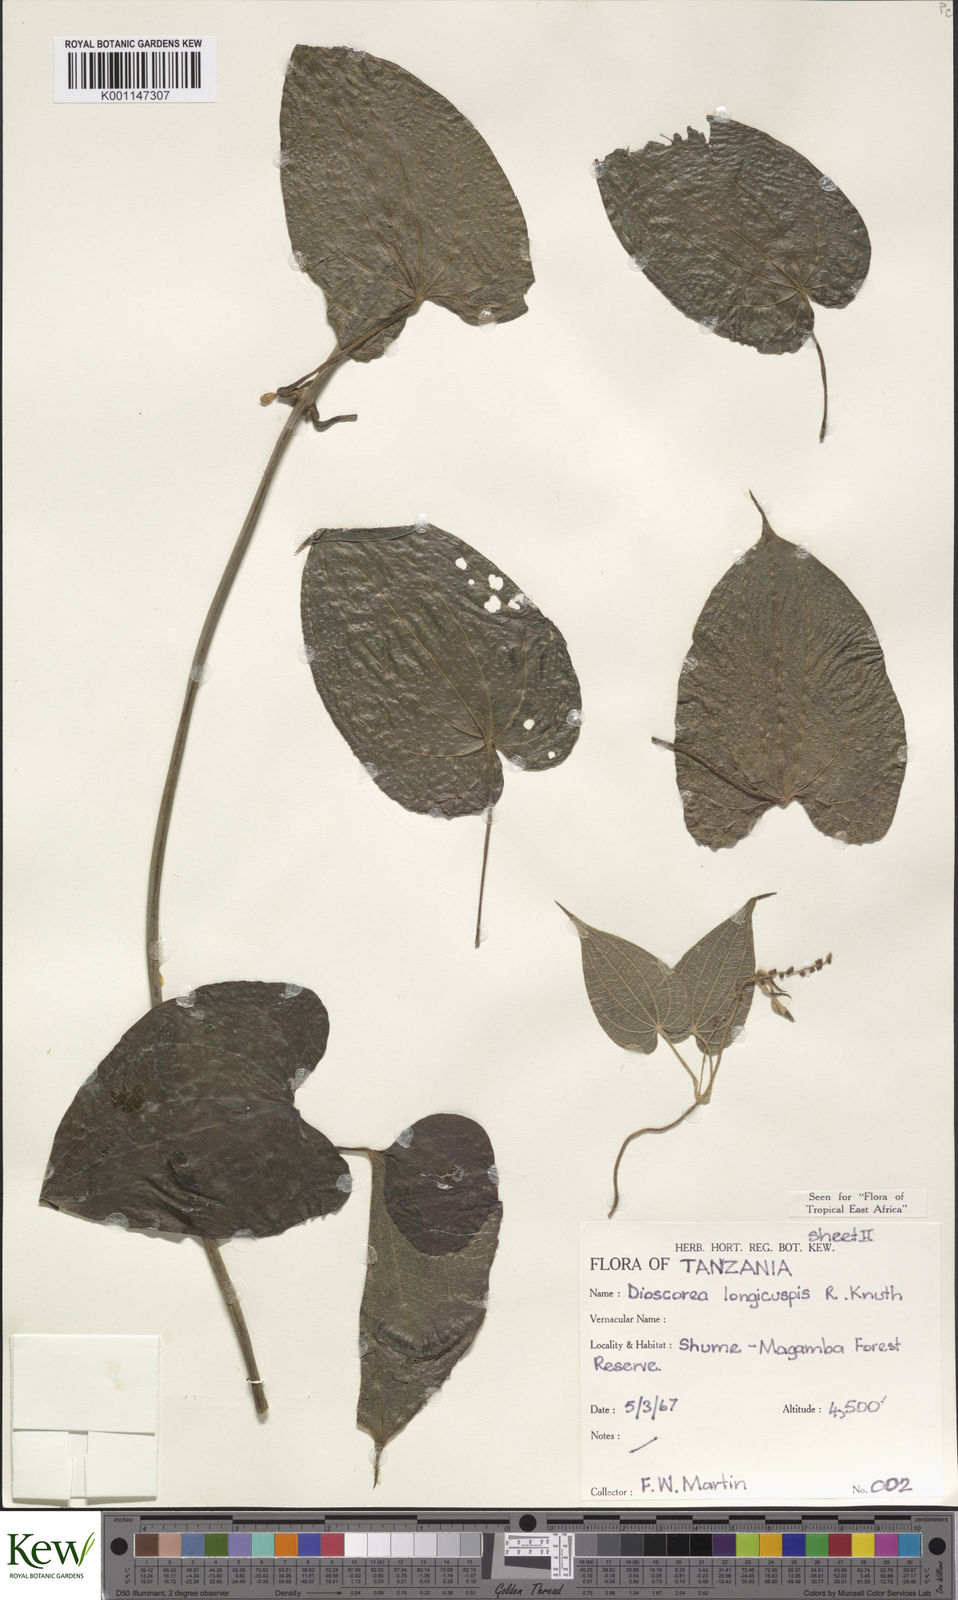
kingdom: Plantae
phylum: Tracheophyta
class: Liliopsida
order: Dioscoreales
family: Dioscoreaceae
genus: Dioscorea
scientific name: Dioscorea longicuspis
